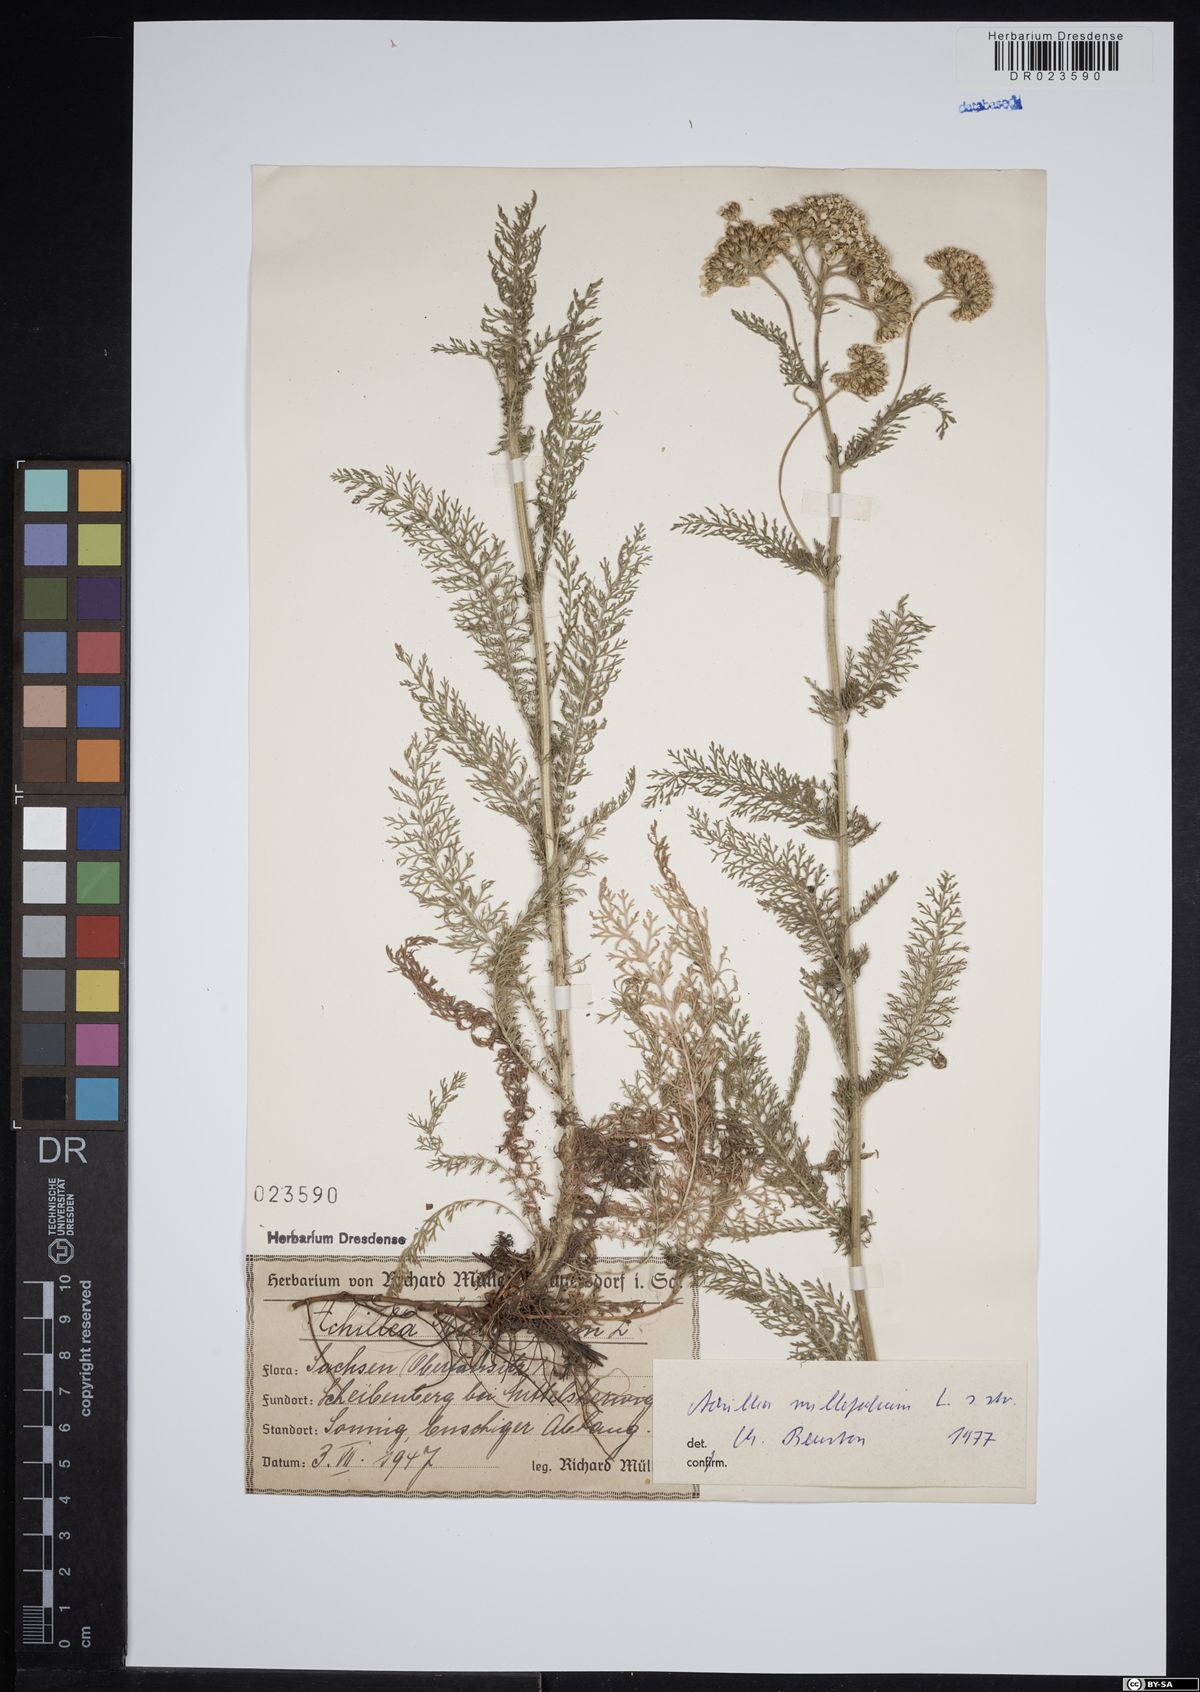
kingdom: Plantae
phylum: Tracheophyta
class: Magnoliopsida
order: Asterales
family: Asteraceae
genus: Achillea
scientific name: Achillea millefolium
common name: Yarrow
